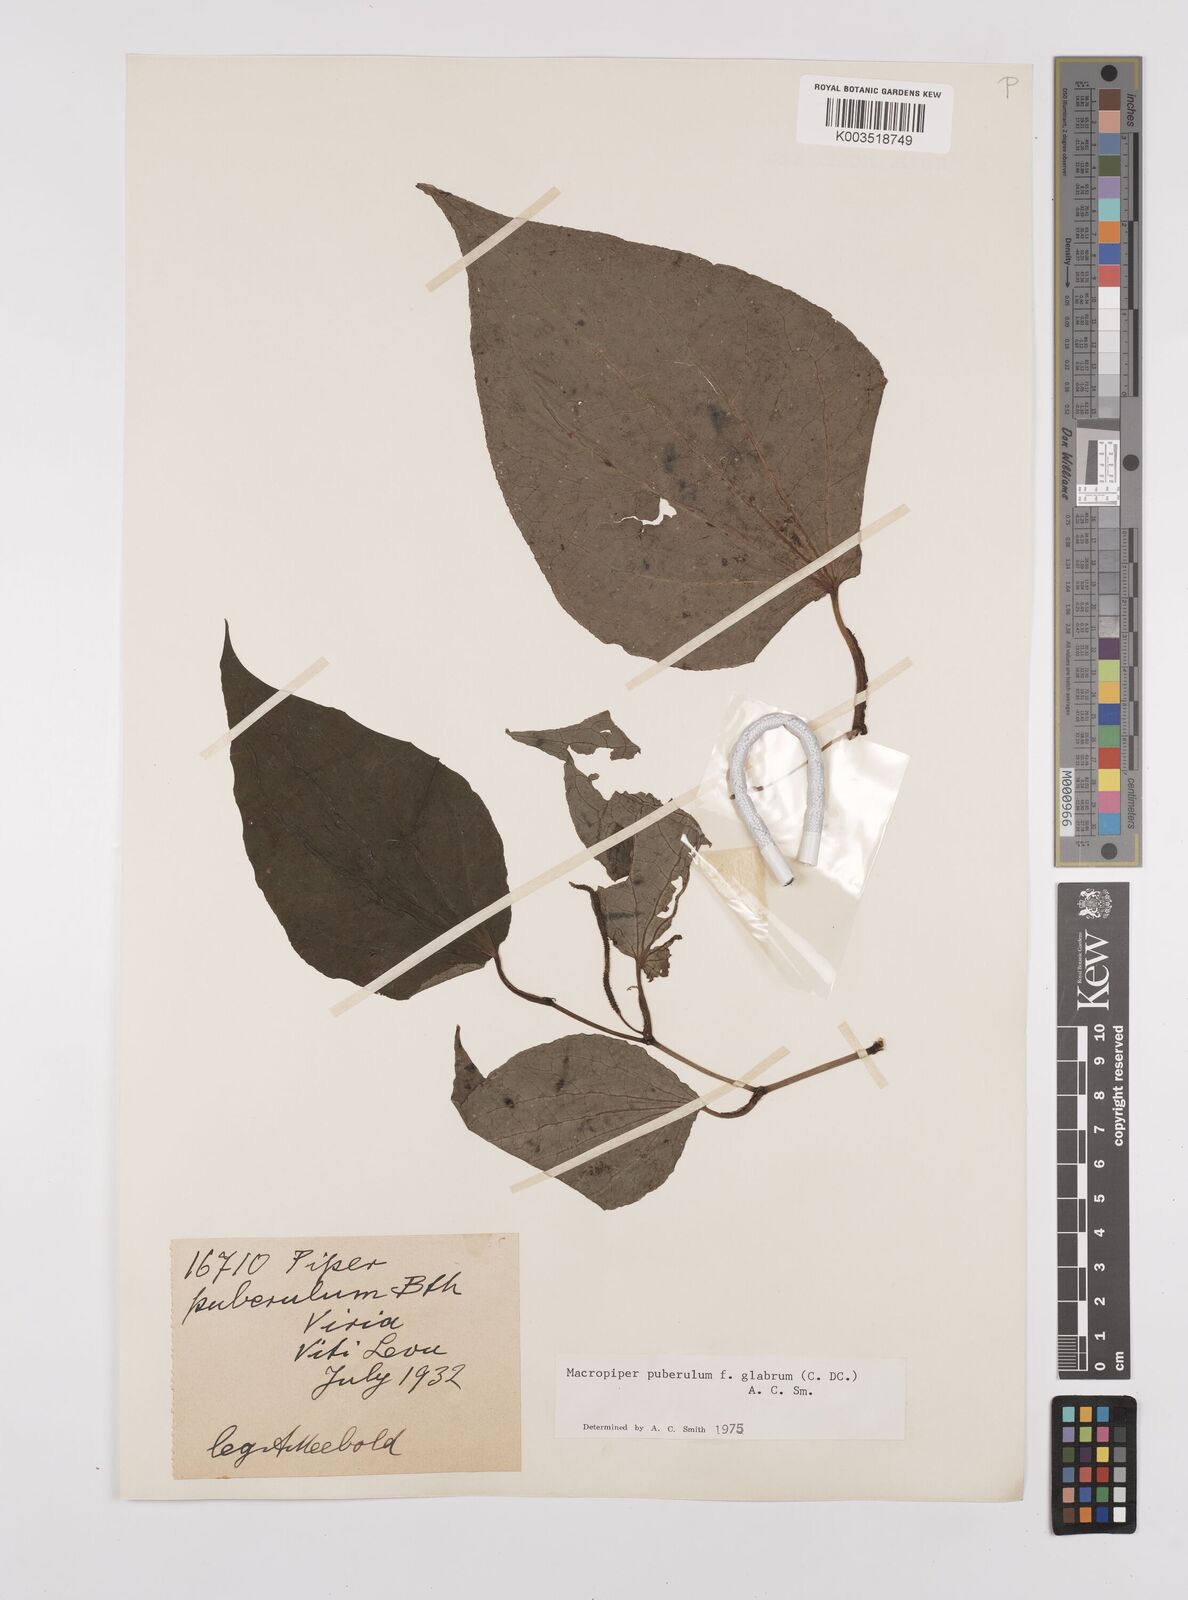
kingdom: Plantae
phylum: Tracheophyta
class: Magnoliopsida
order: Piperales
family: Piperaceae
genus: Macropiper
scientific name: Macropiper puberulum
